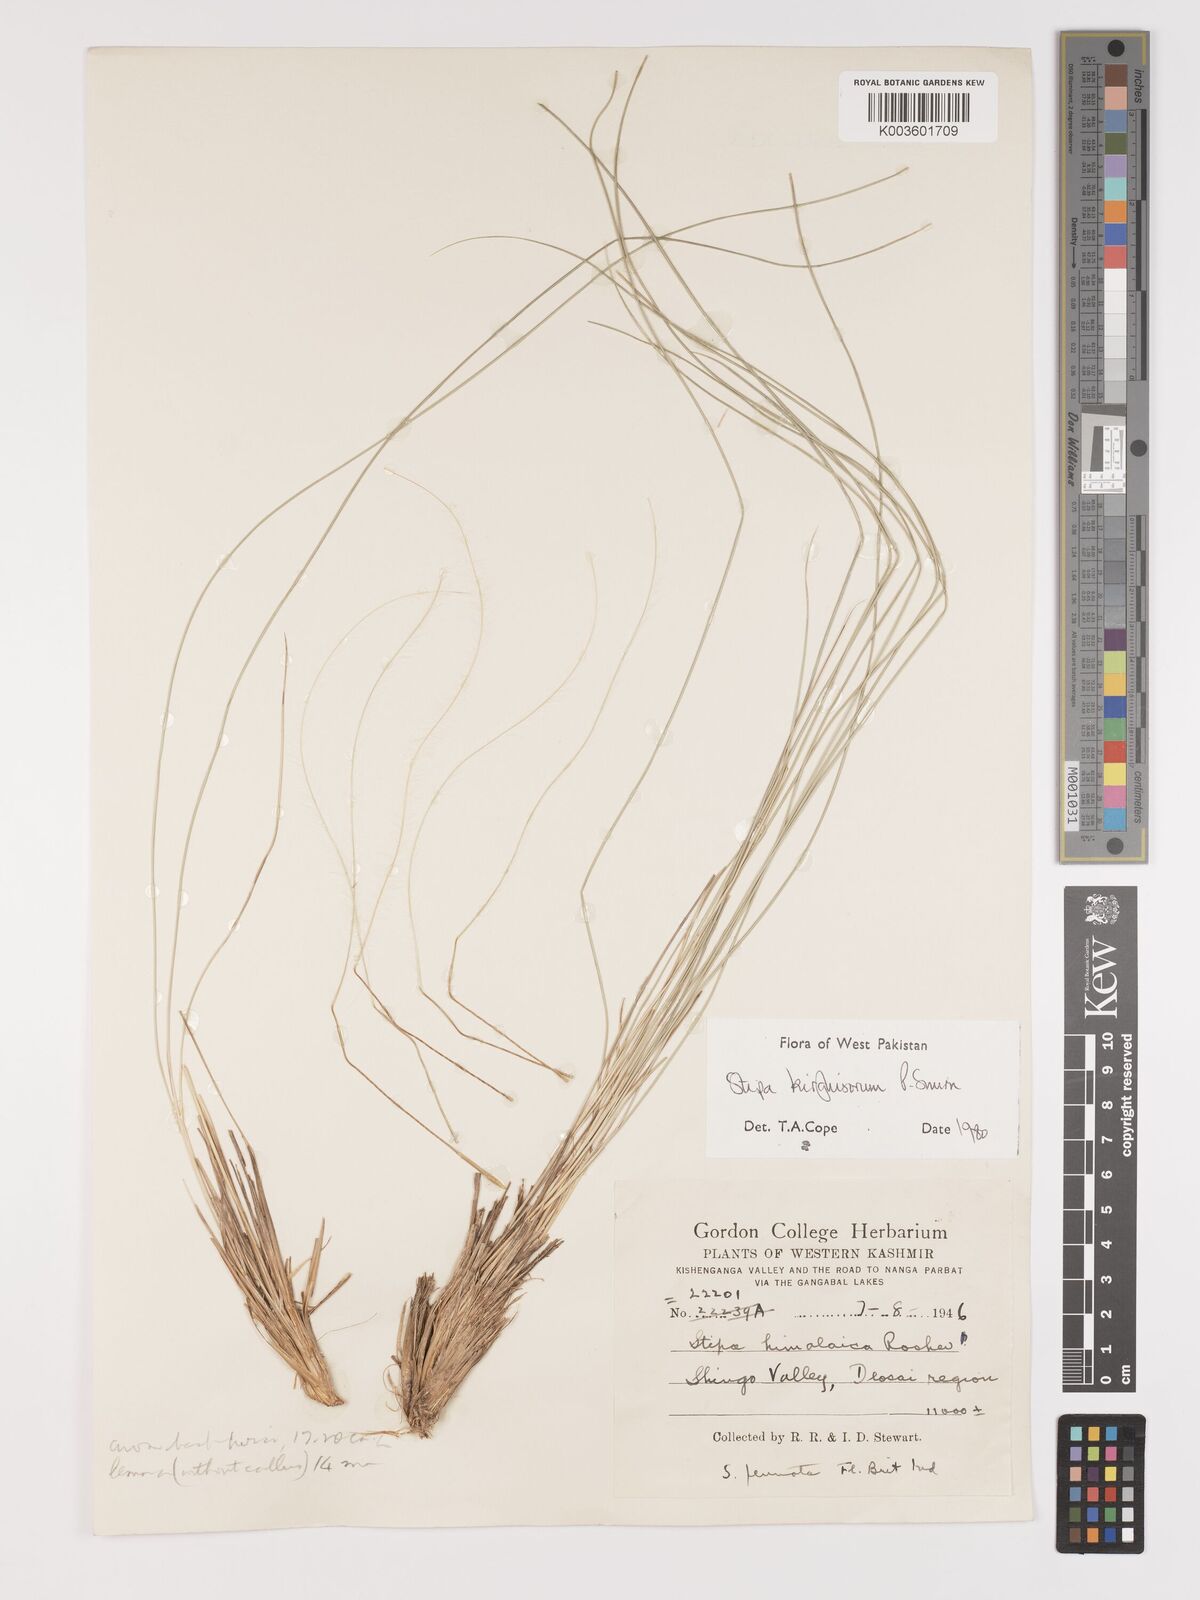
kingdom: Plantae
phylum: Tracheophyta
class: Liliopsida
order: Poales
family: Poaceae
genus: Stipa
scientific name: Stipa kirghisorum
